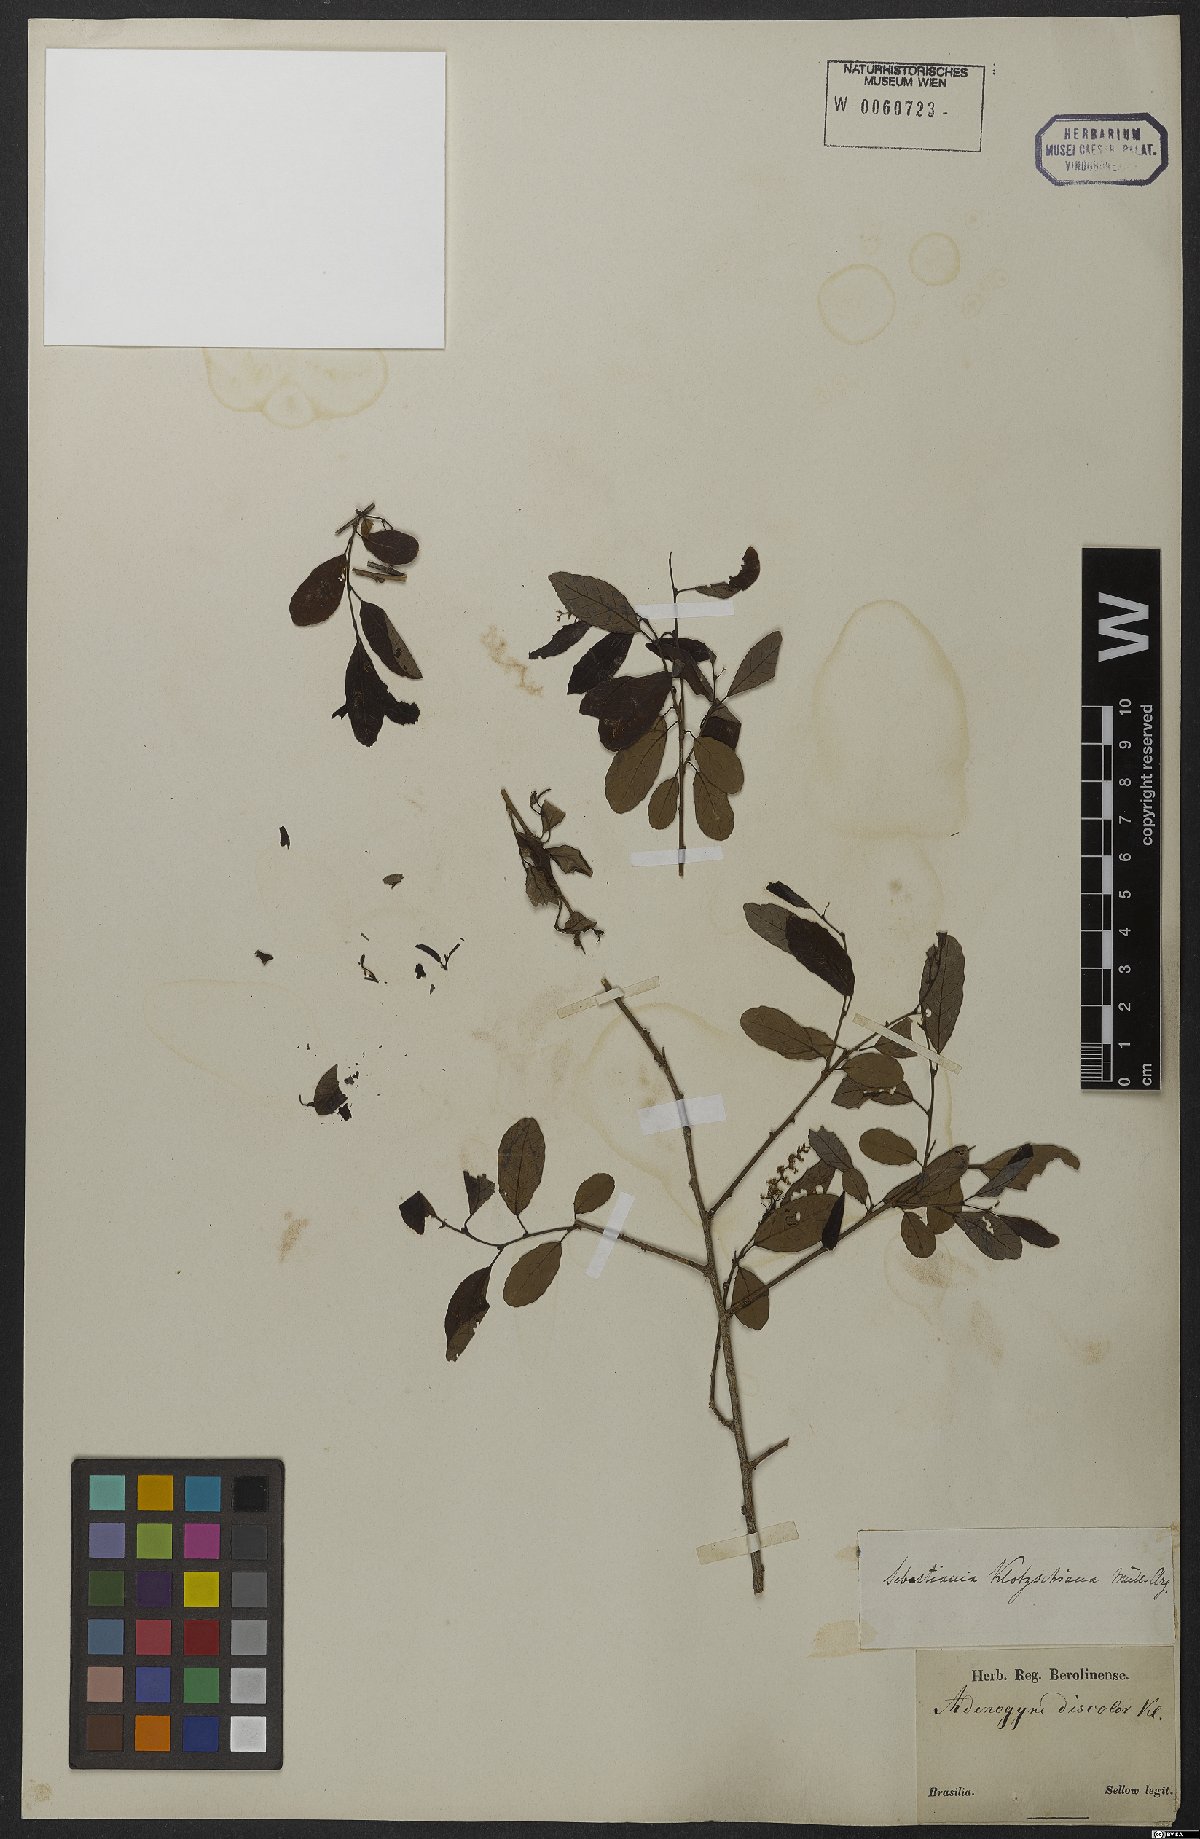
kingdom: Plantae
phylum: Tracheophyta
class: Magnoliopsida
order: Malpighiales
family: Euphorbiaceae
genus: Sebastiania
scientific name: Sebastiania klotzschiana
